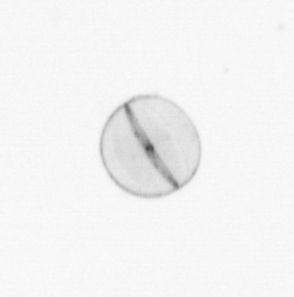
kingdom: Chromista
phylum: Ochrophyta
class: Bacillariophyceae
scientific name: Bacillariophyceae
